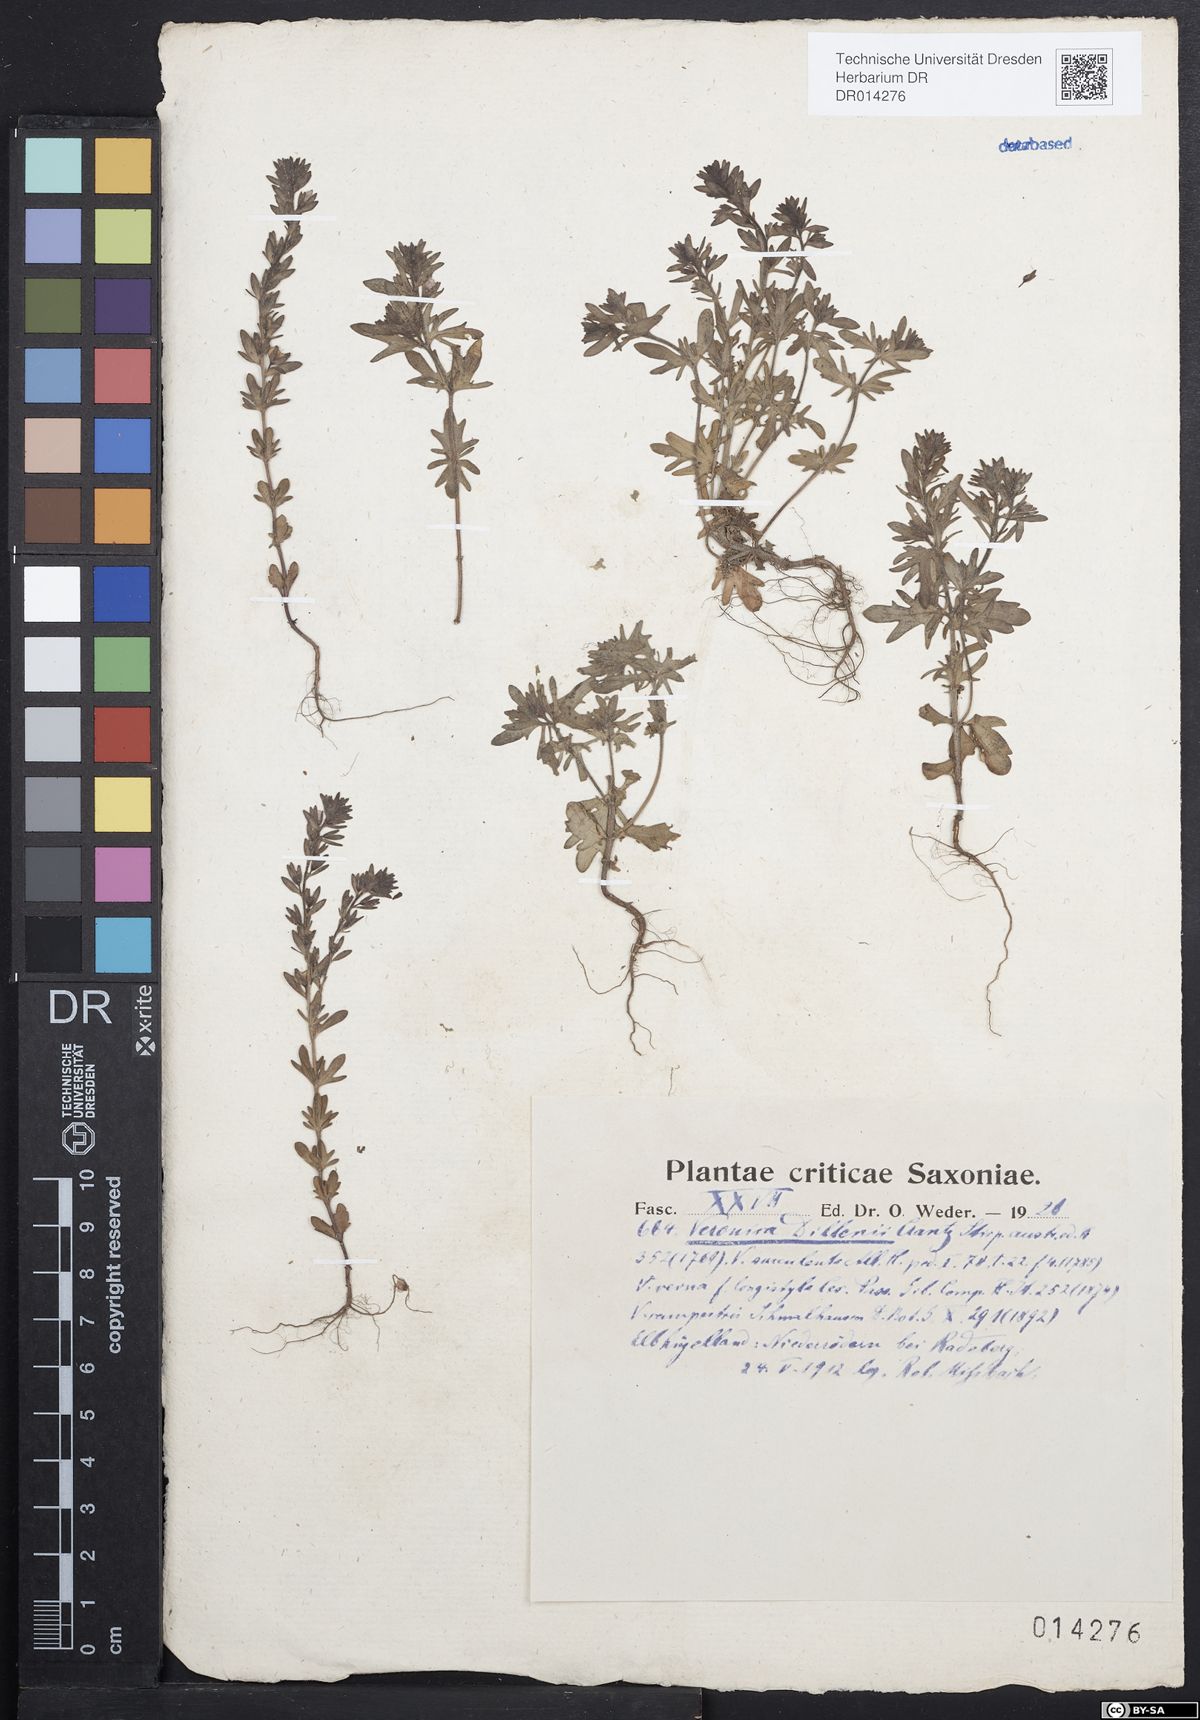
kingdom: Plantae
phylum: Tracheophyta
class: Magnoliopsida
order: Lamiales
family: Plantaginaceae
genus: Veronica
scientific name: Veronica dillenii
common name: Dillenius' speedwell
